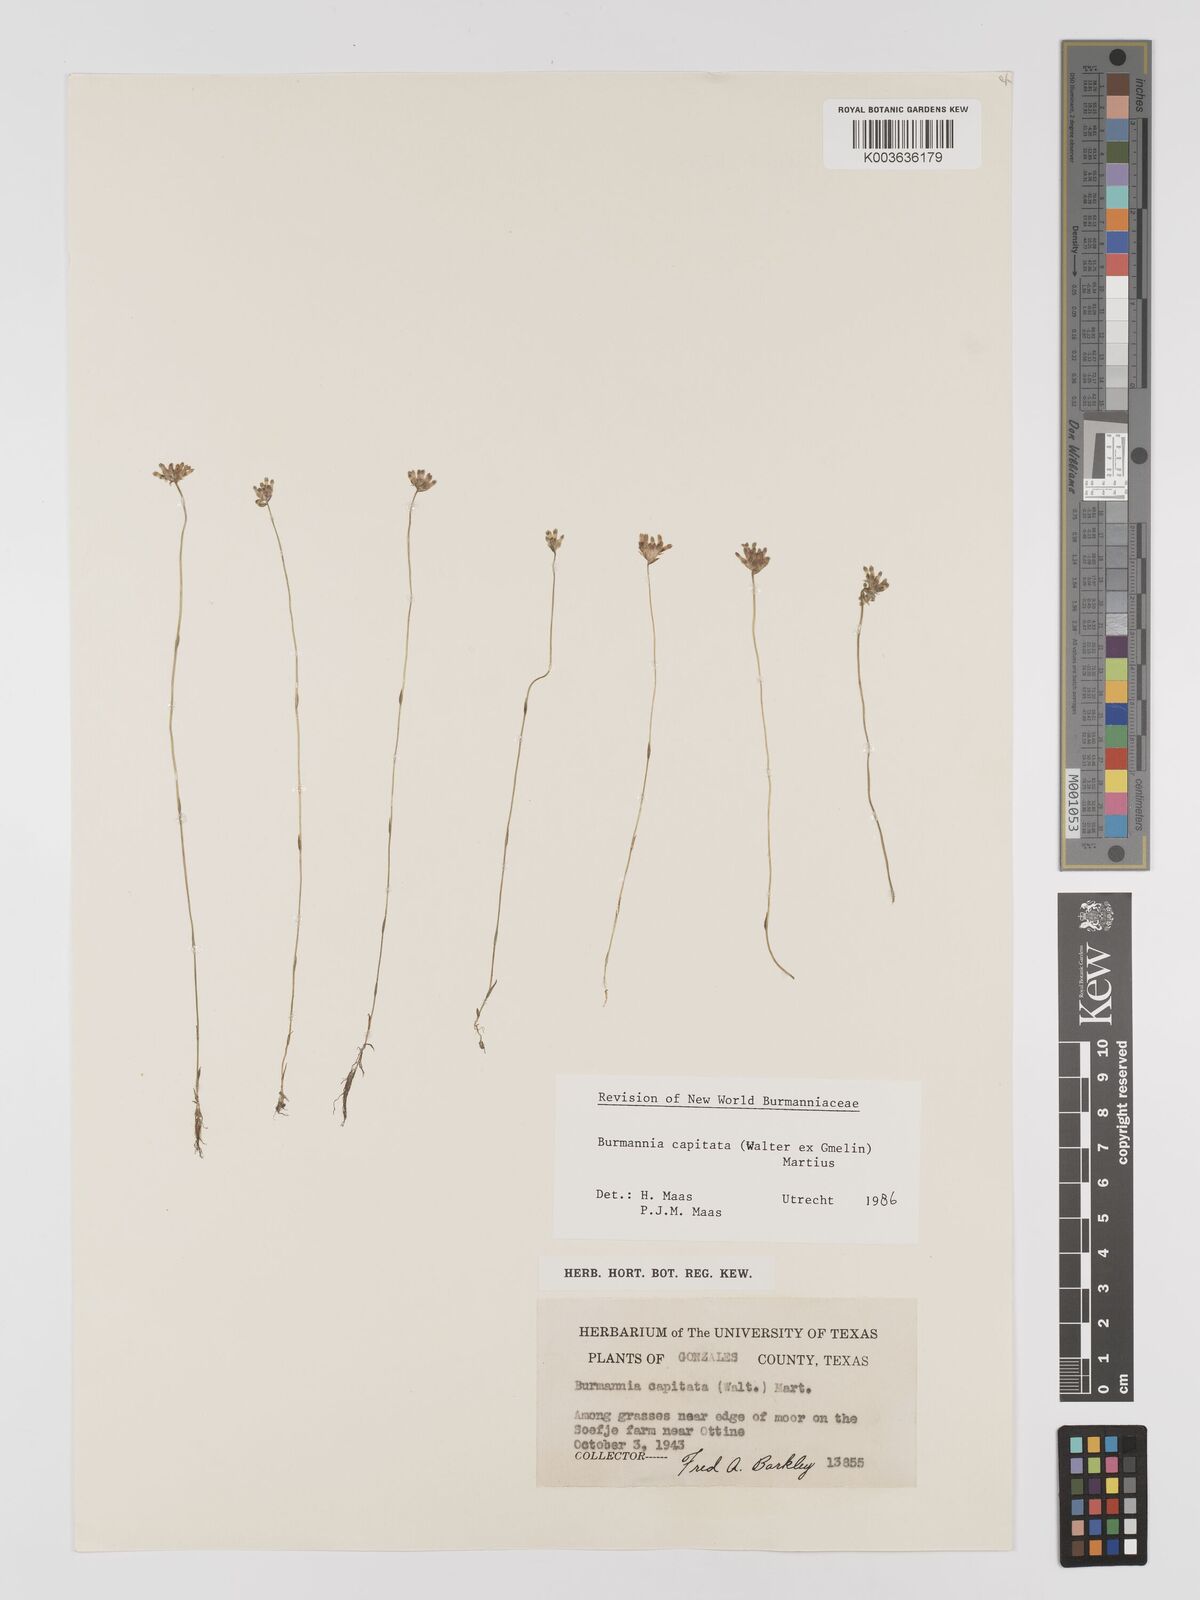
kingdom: Plantae
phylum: Tracheophyta
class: Liliopsida
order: Dioscoreales
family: Burmanniaceae
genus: Burmannia
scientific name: Burmannia capitata
